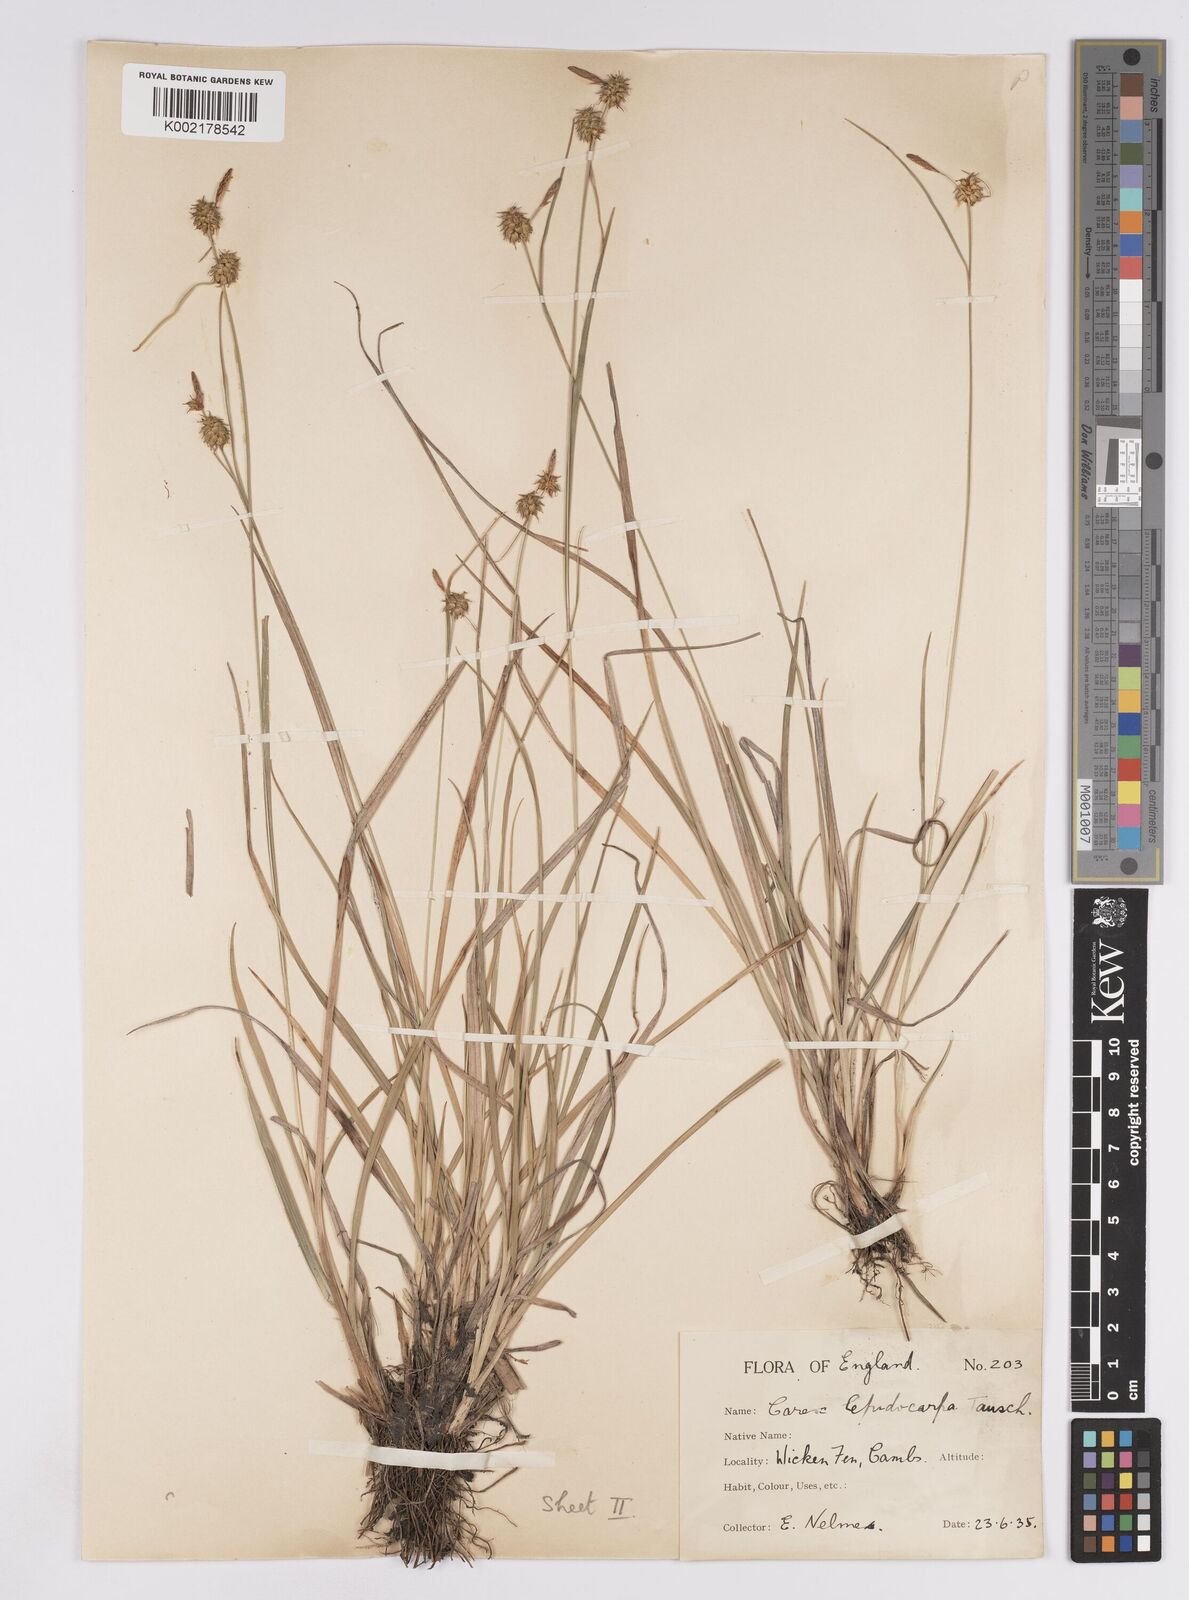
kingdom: Plantae
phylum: Tracheophyta
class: Liliopsida
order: Poales
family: Cyperaceae
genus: Carex
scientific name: Carex lepidocarpa
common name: Long-stalked yellow-sedge
